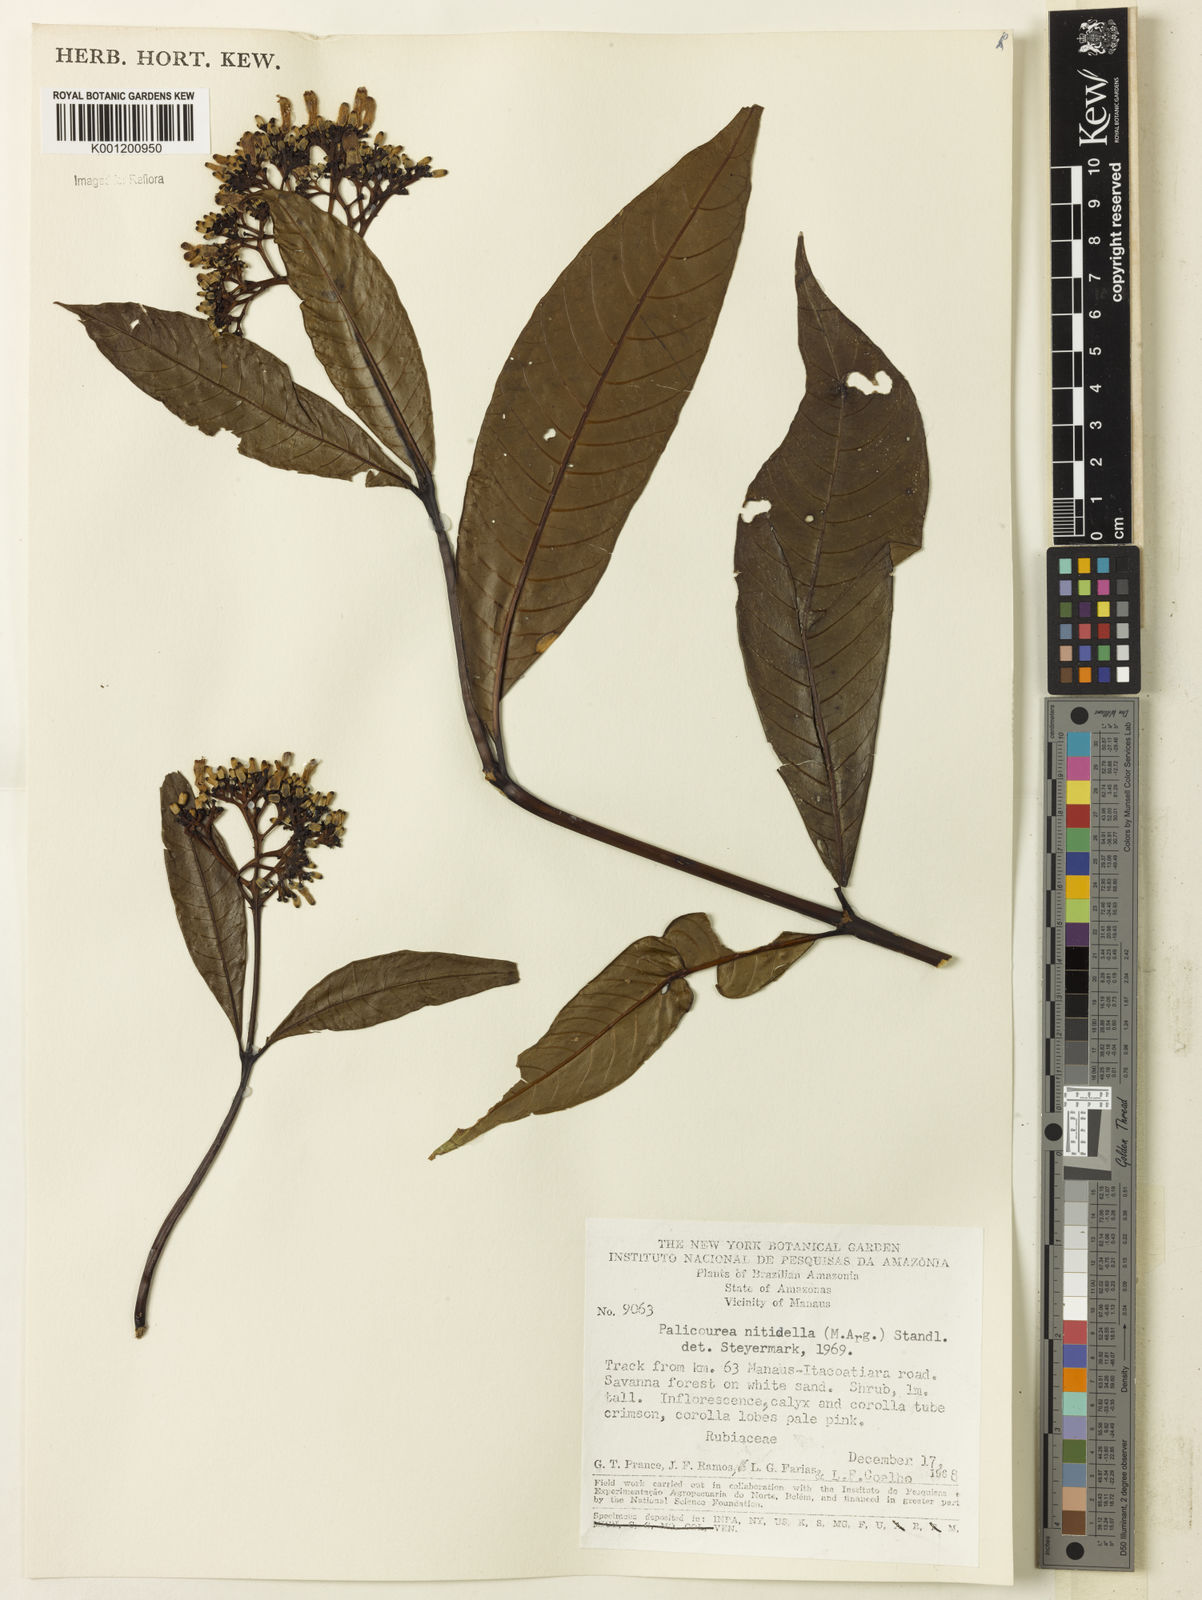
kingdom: Plantae
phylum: Tracheophyta
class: Magnoliopsida
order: Gentianales
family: Rubiaceae
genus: Palicourea
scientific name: Palicourea
